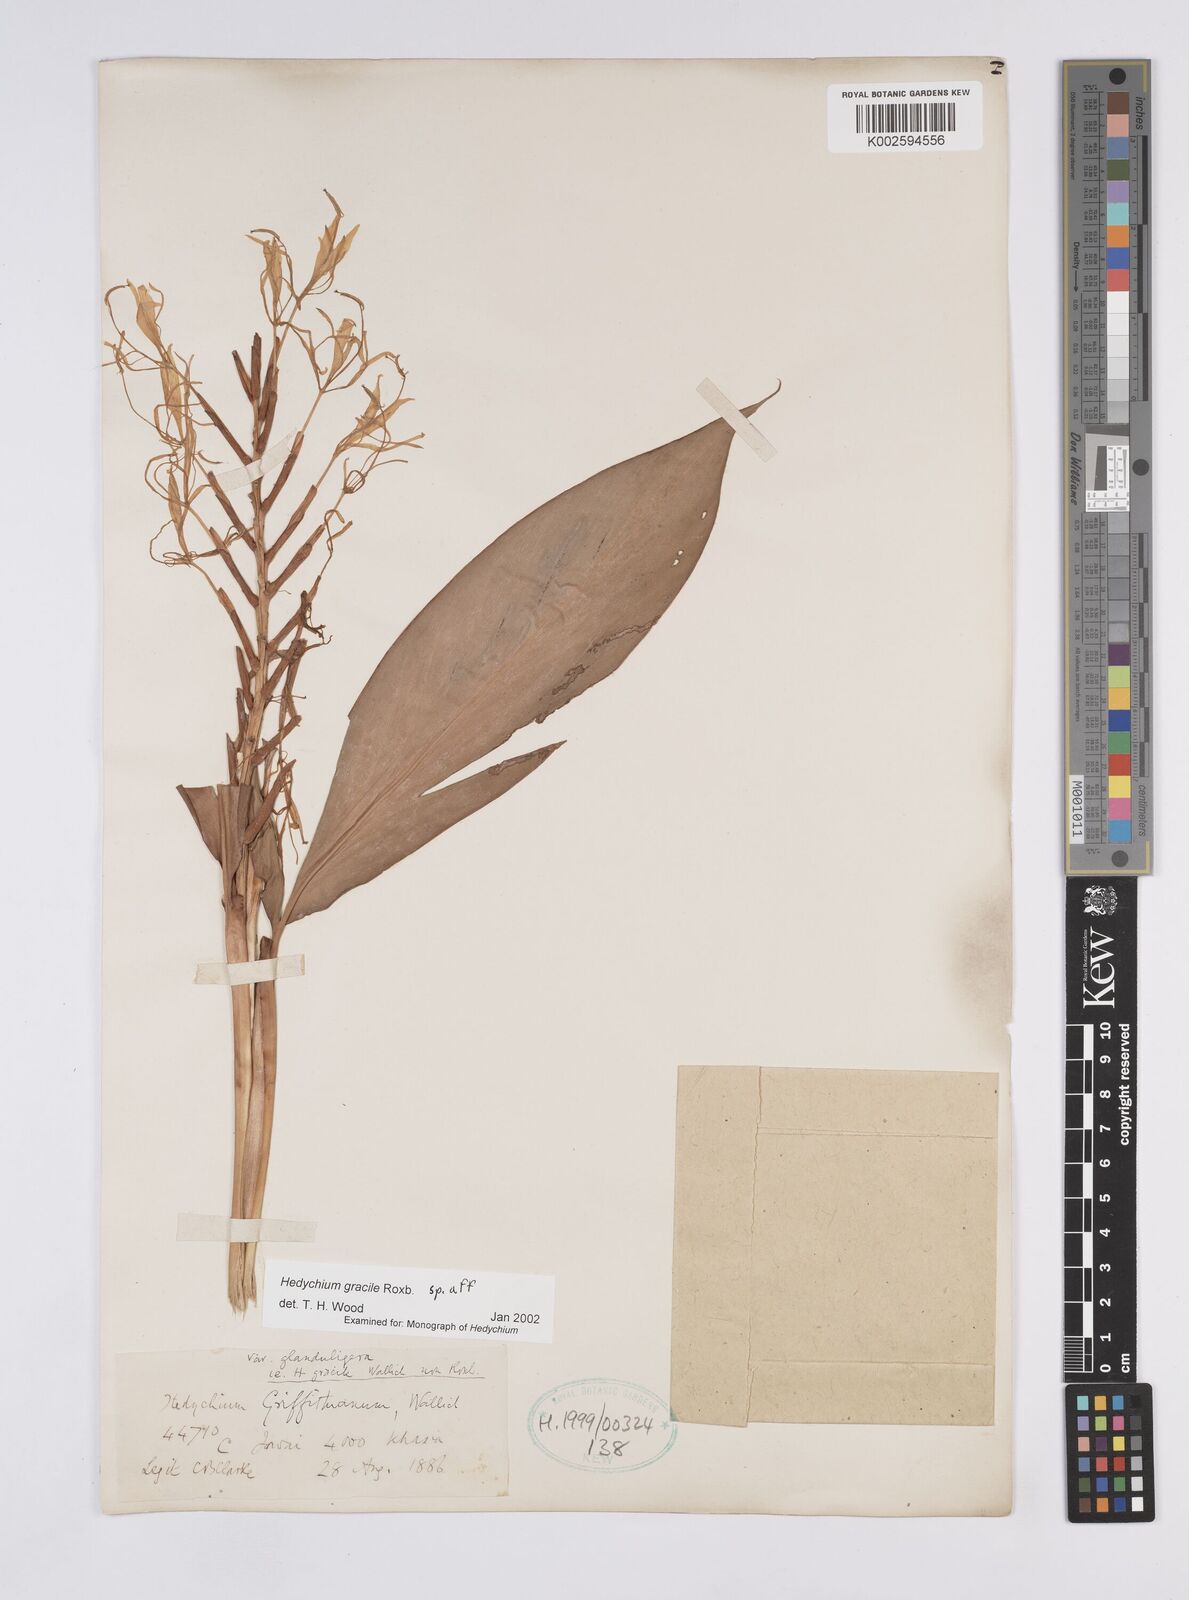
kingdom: Plantae
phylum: Tracheophyta
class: Liliopsida
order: Zingiberales
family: Zingiberaceae
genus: Hedychium
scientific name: Hedychium glaucum
